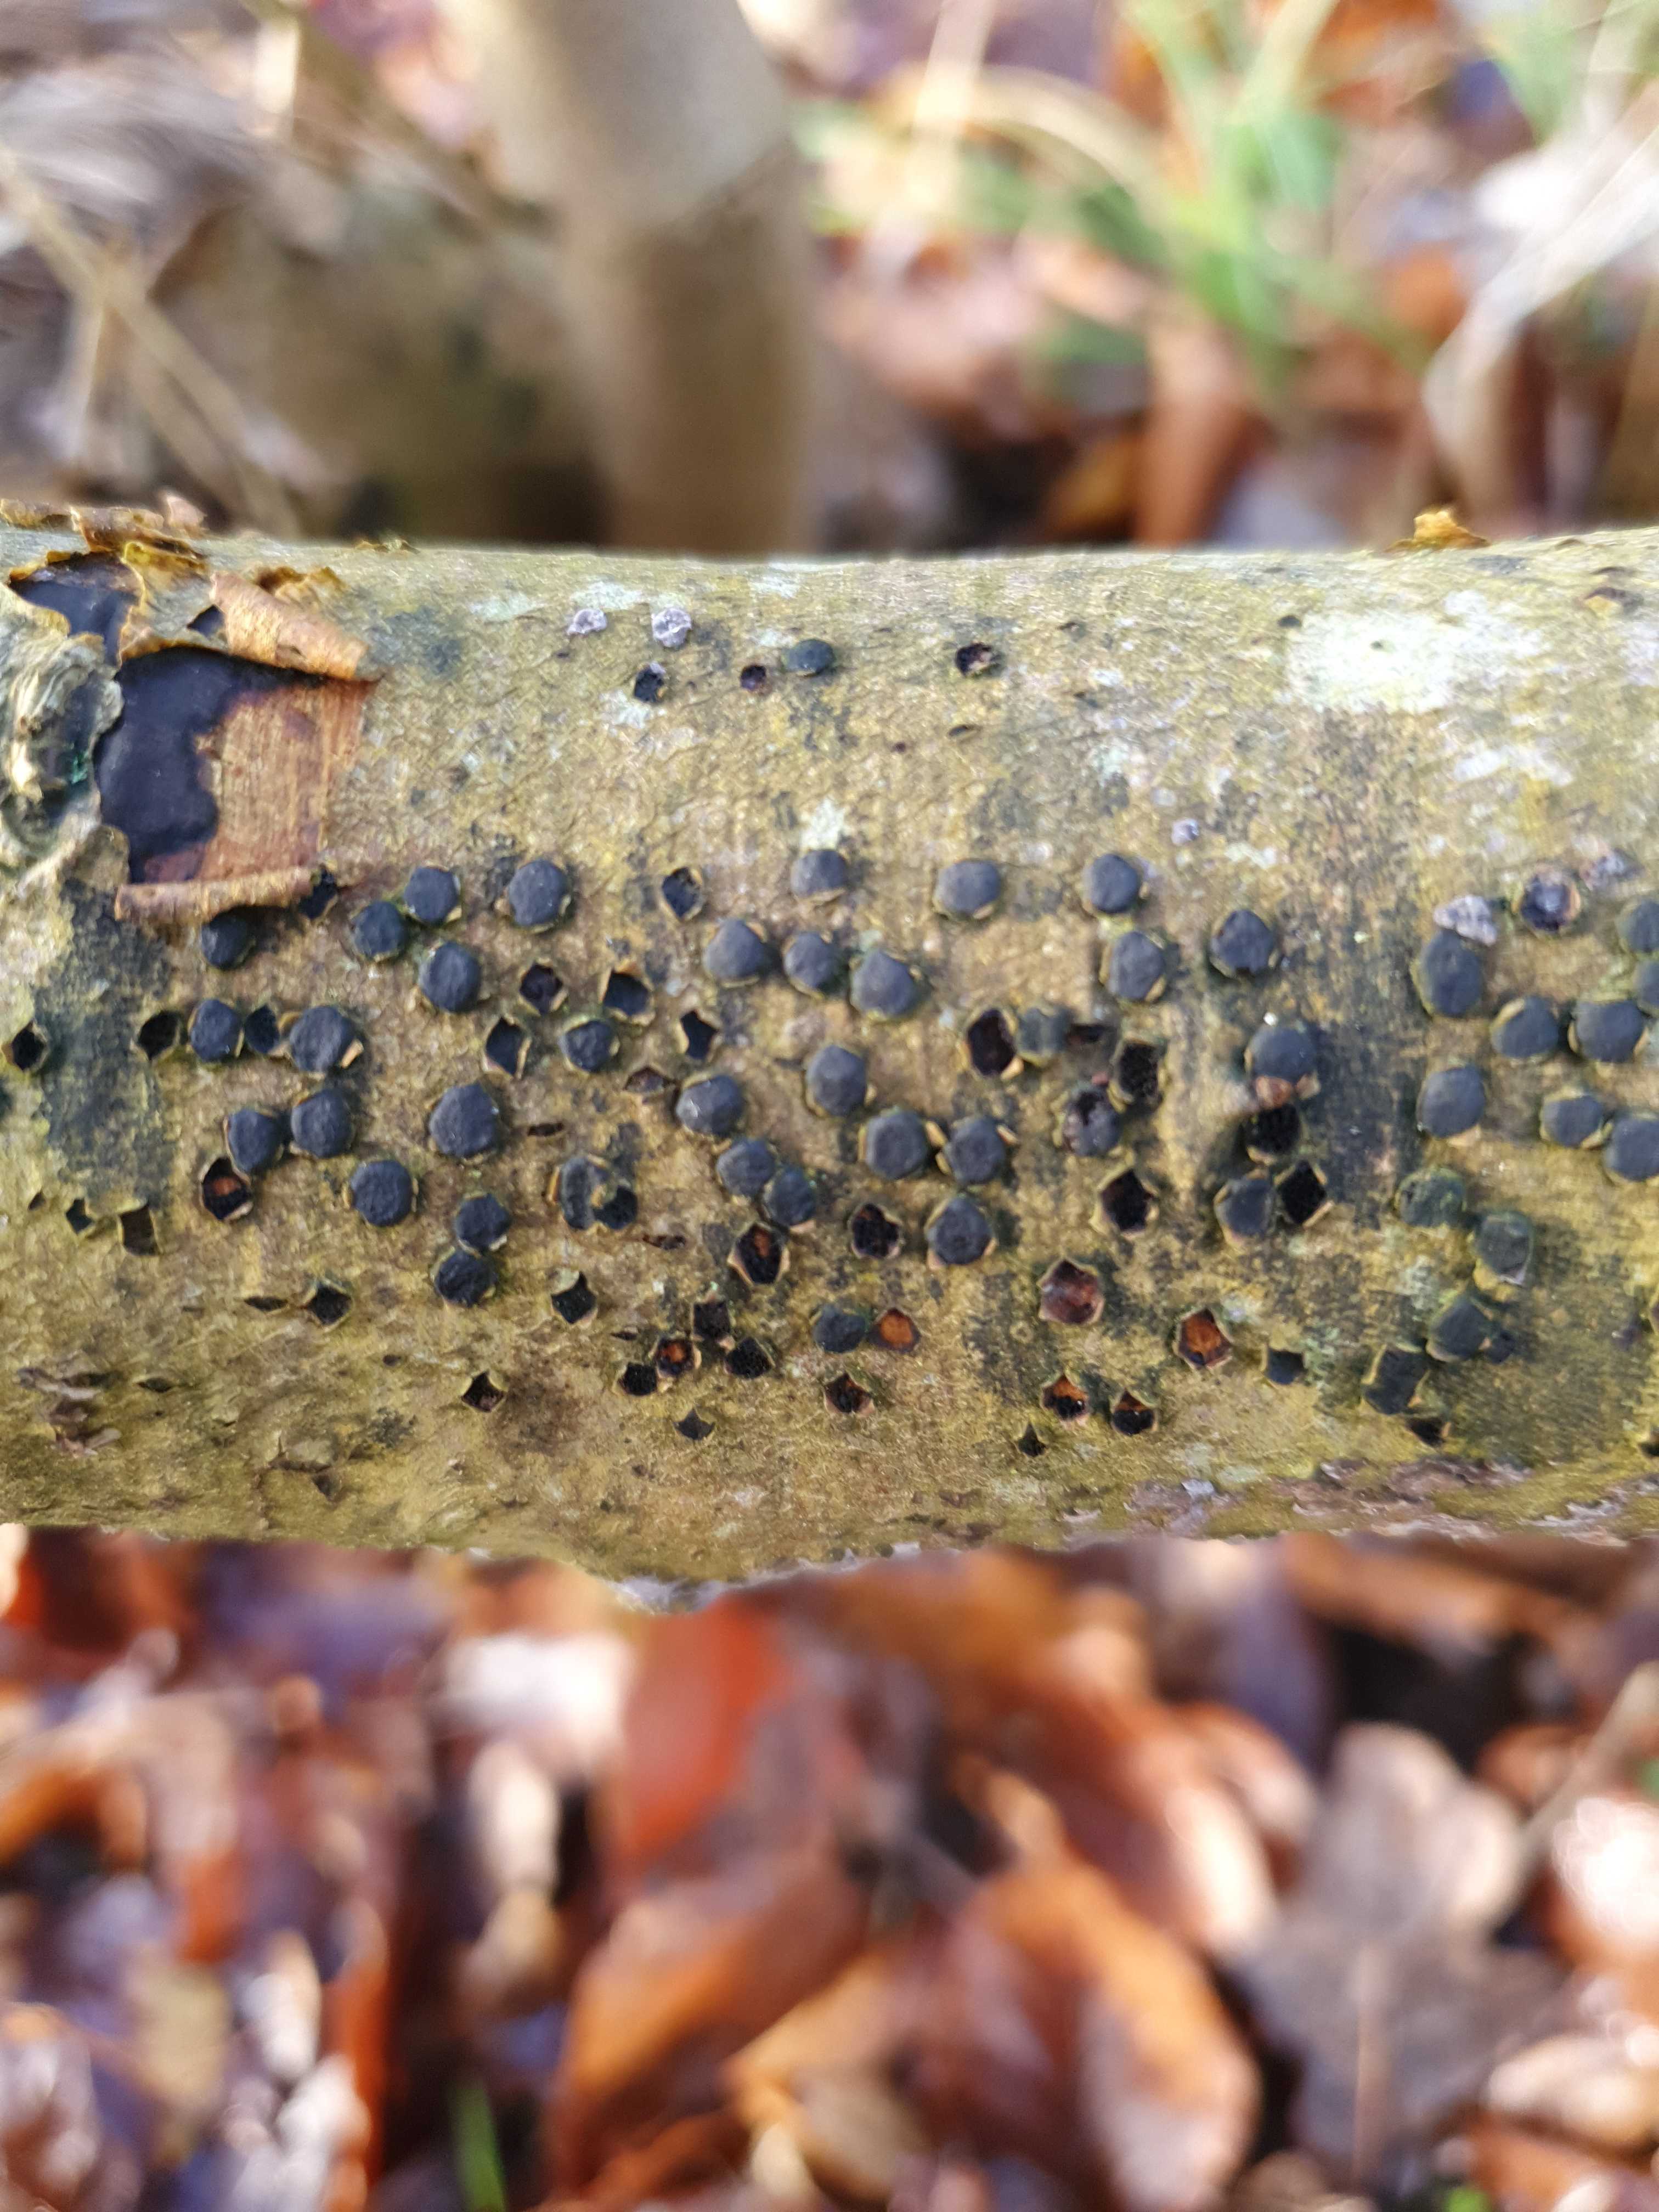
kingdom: Fungi
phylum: Ascomycota
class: Sordariomycetes
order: Xylariales
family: Diatrypaceae
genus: Diatrype
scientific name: Diatrype disciformis
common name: kant-kulskorpe
